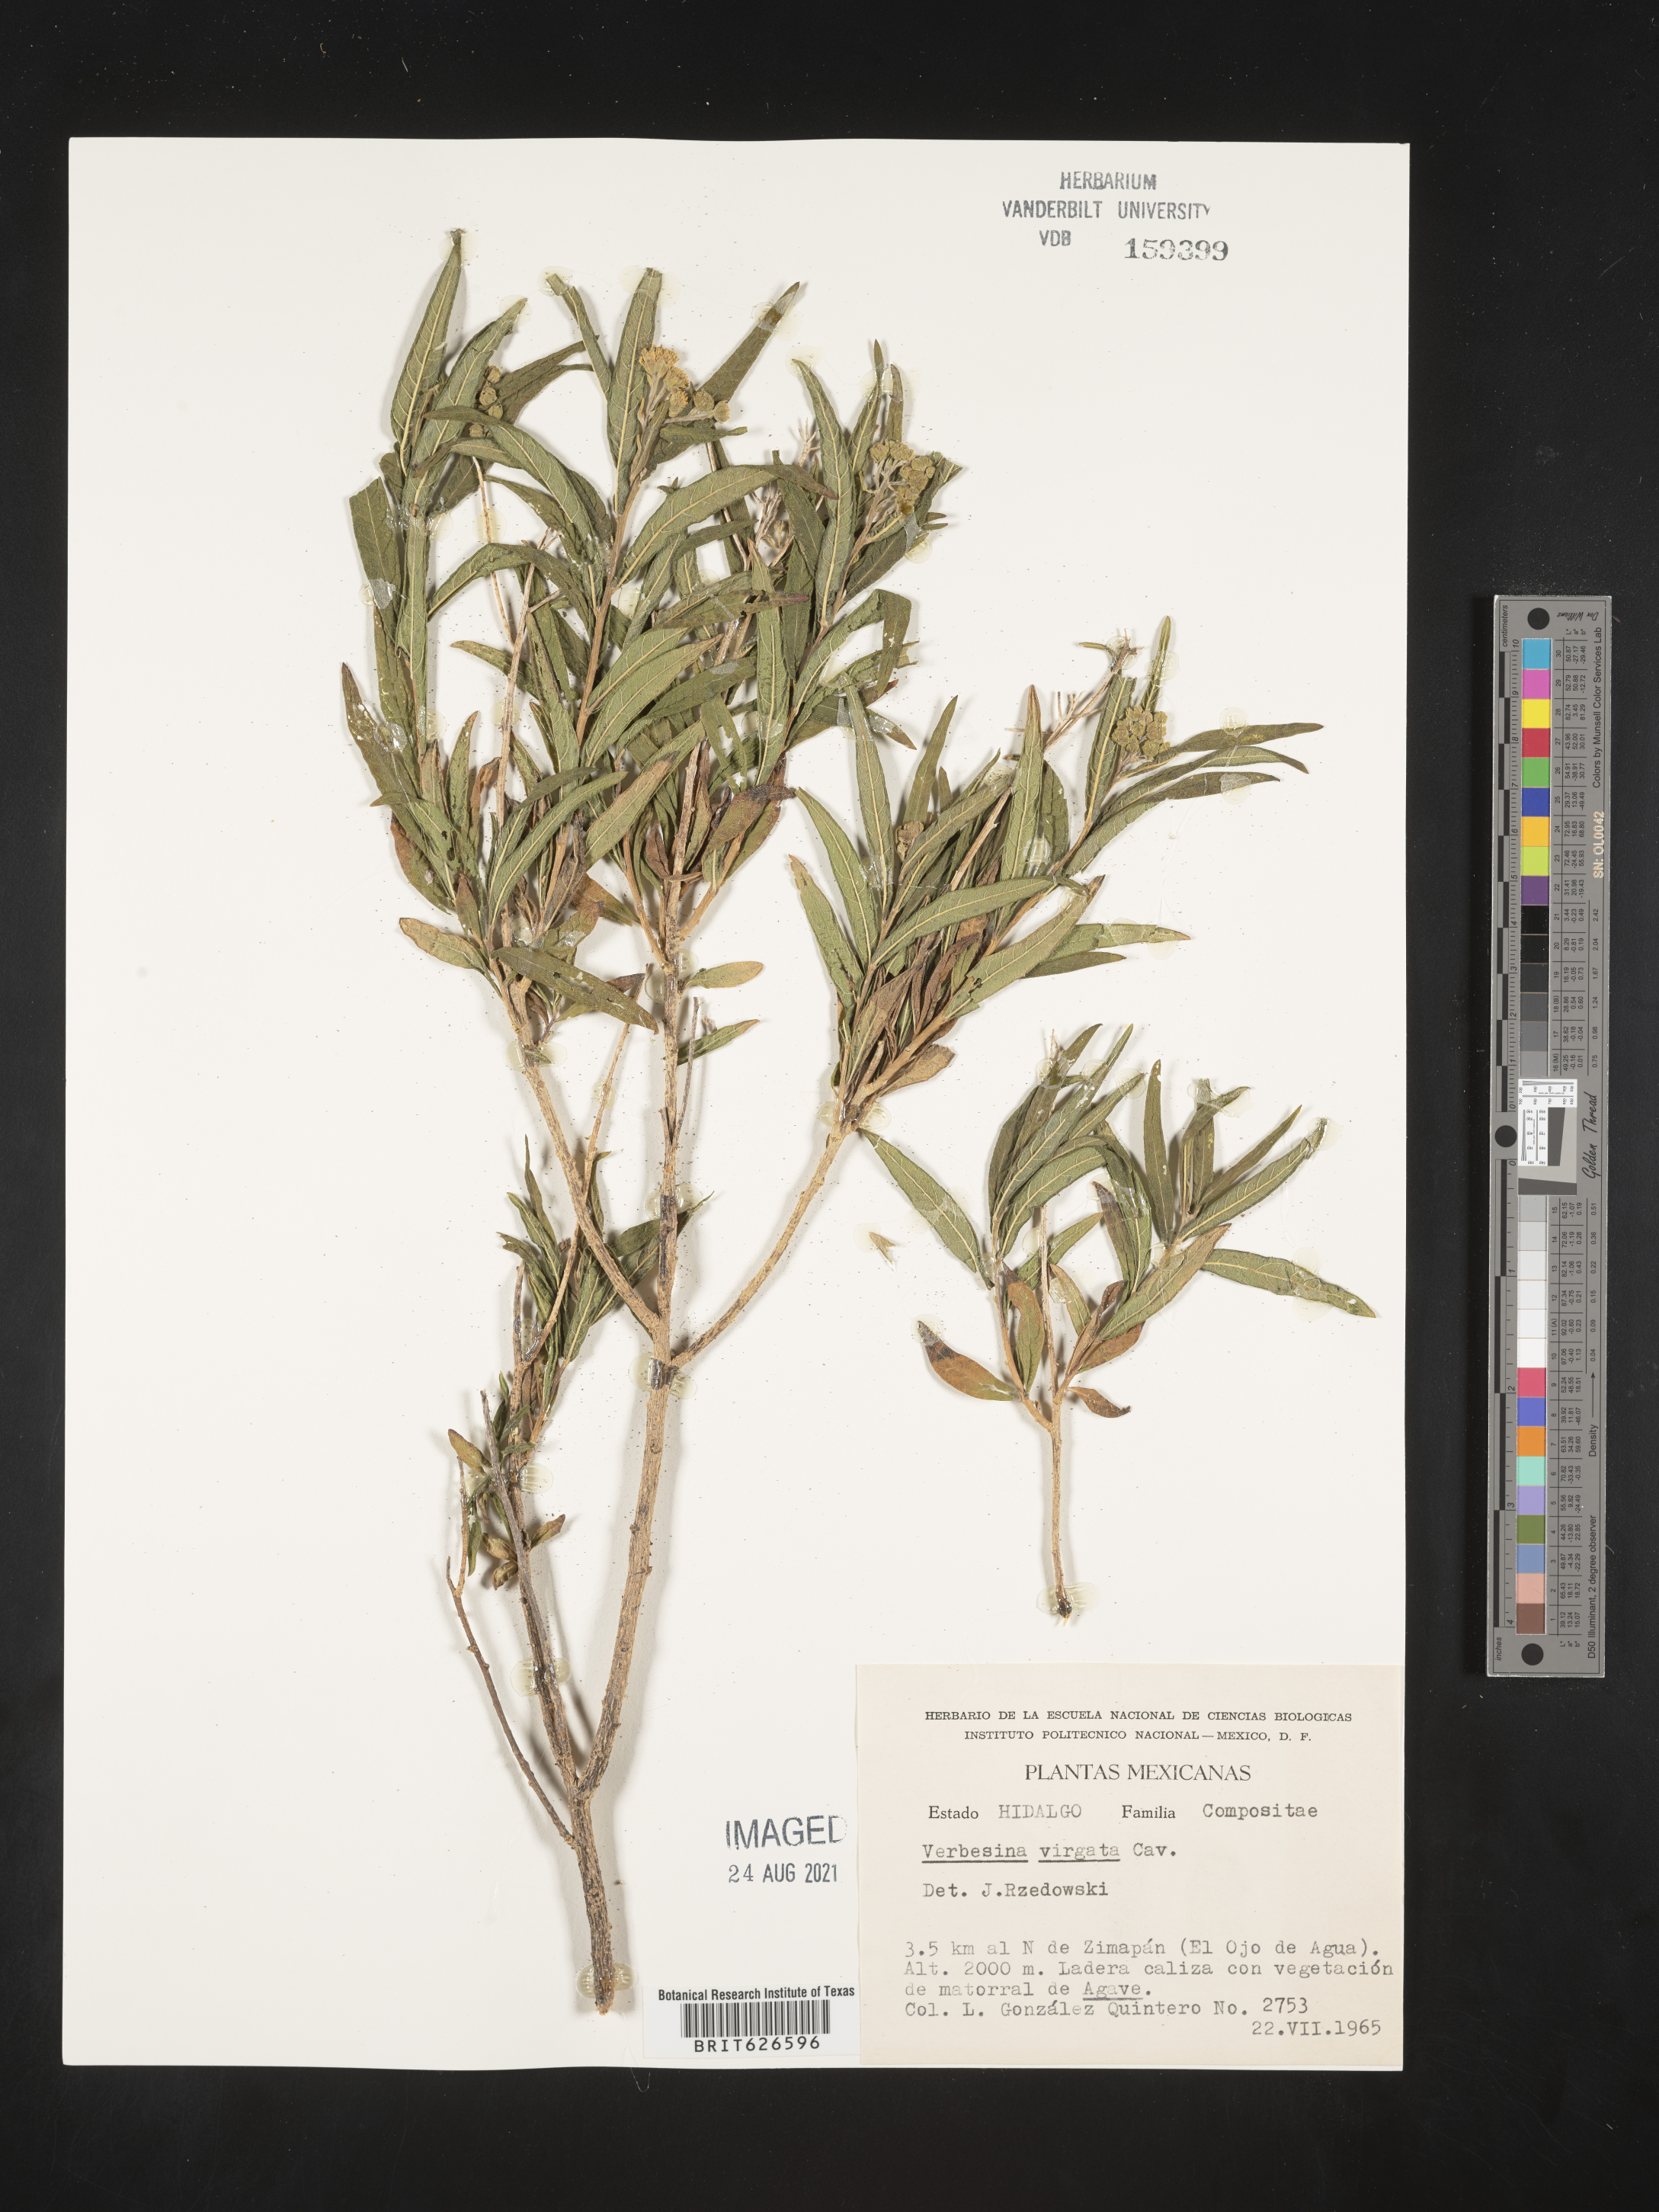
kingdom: Plantae
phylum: Tracheophyta
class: Magnoliopsida
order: Asterales
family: Asteraceae
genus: Verbesina
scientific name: Verbesina
